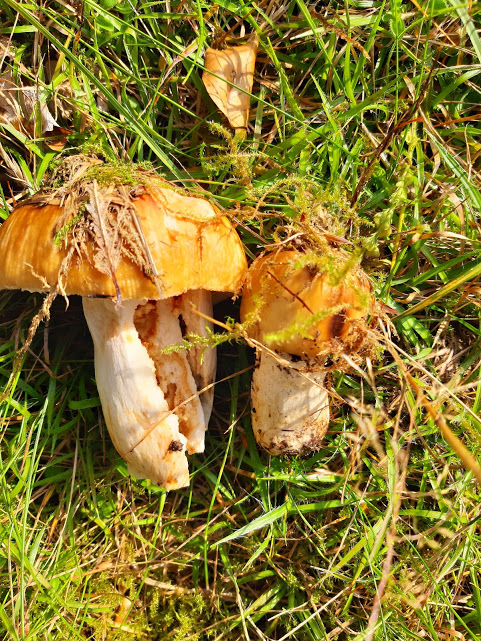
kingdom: Fungi
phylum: Basidiomycota
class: Agaricomycetes
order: Russulales
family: Russulaceae
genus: Russula
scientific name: Russula grata
